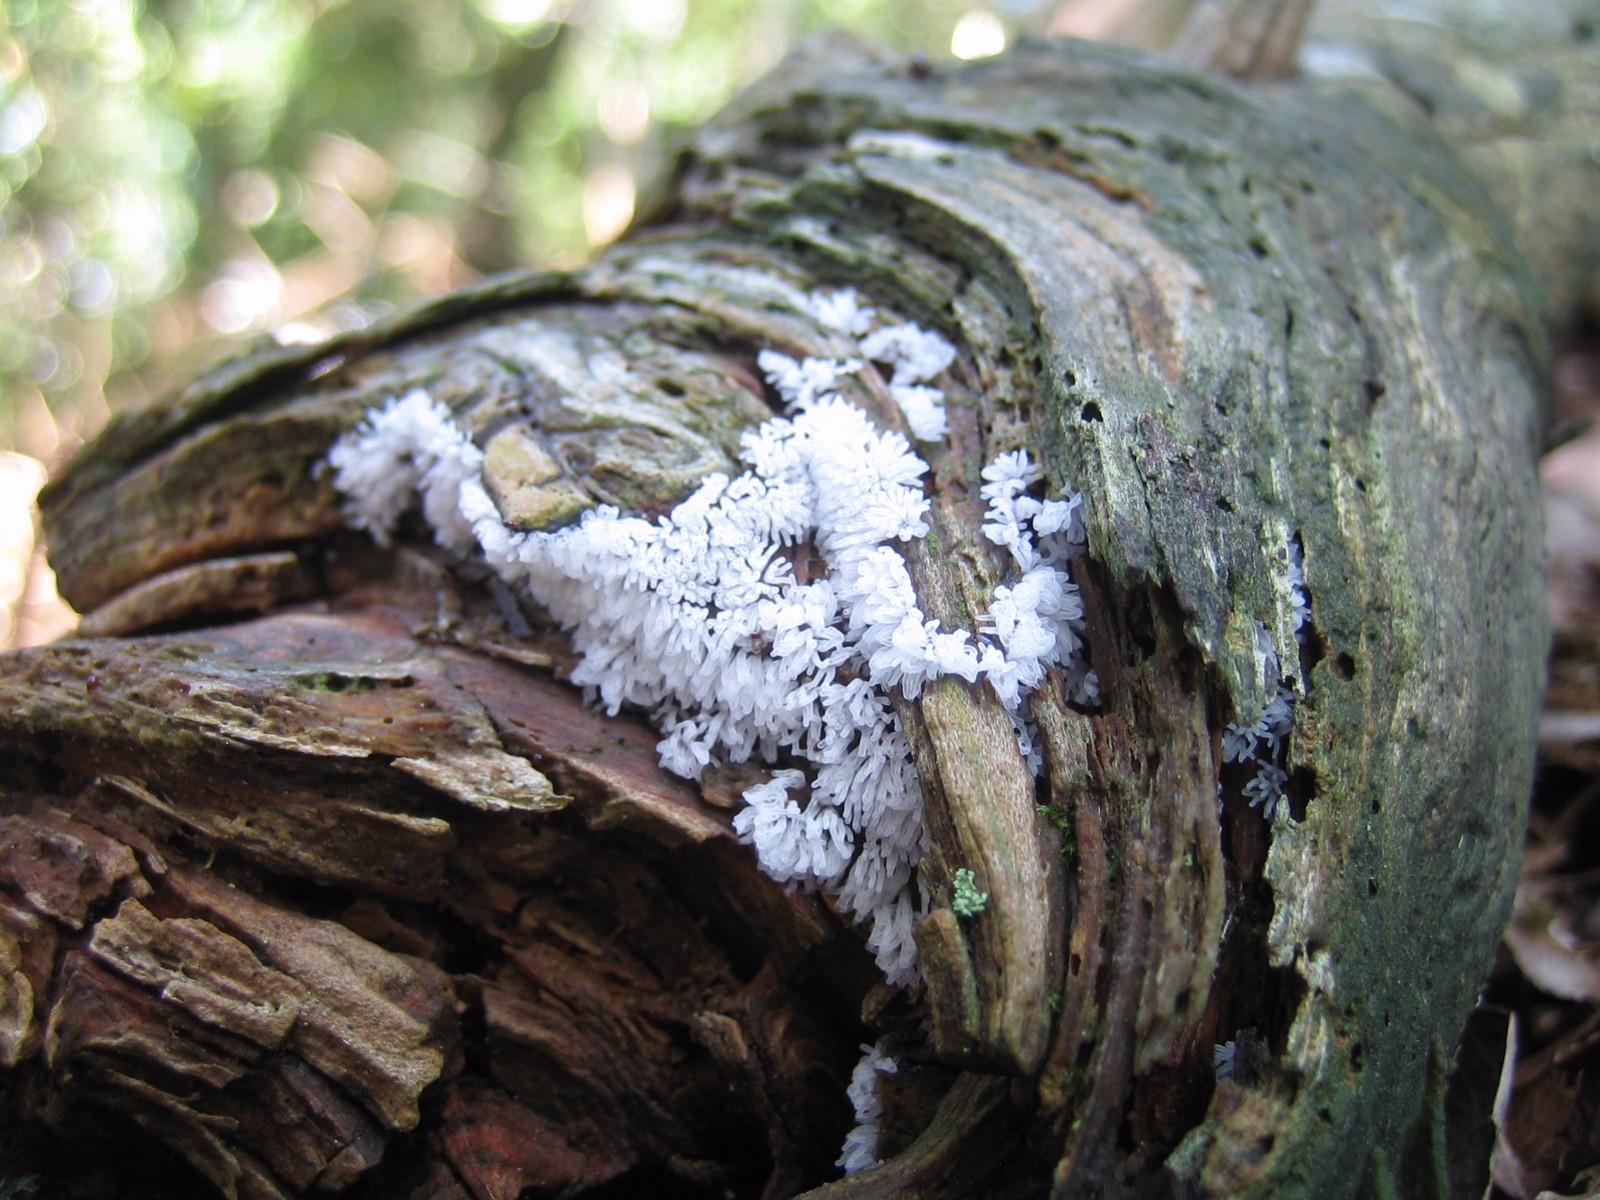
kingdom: Protozoa
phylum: Mycetozoa
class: Protosteliomycetes
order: Ceratiomyxales
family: Ceratiomyxaceae
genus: Ceratiomyxa
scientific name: Ceratiomyxa fruticulosa
